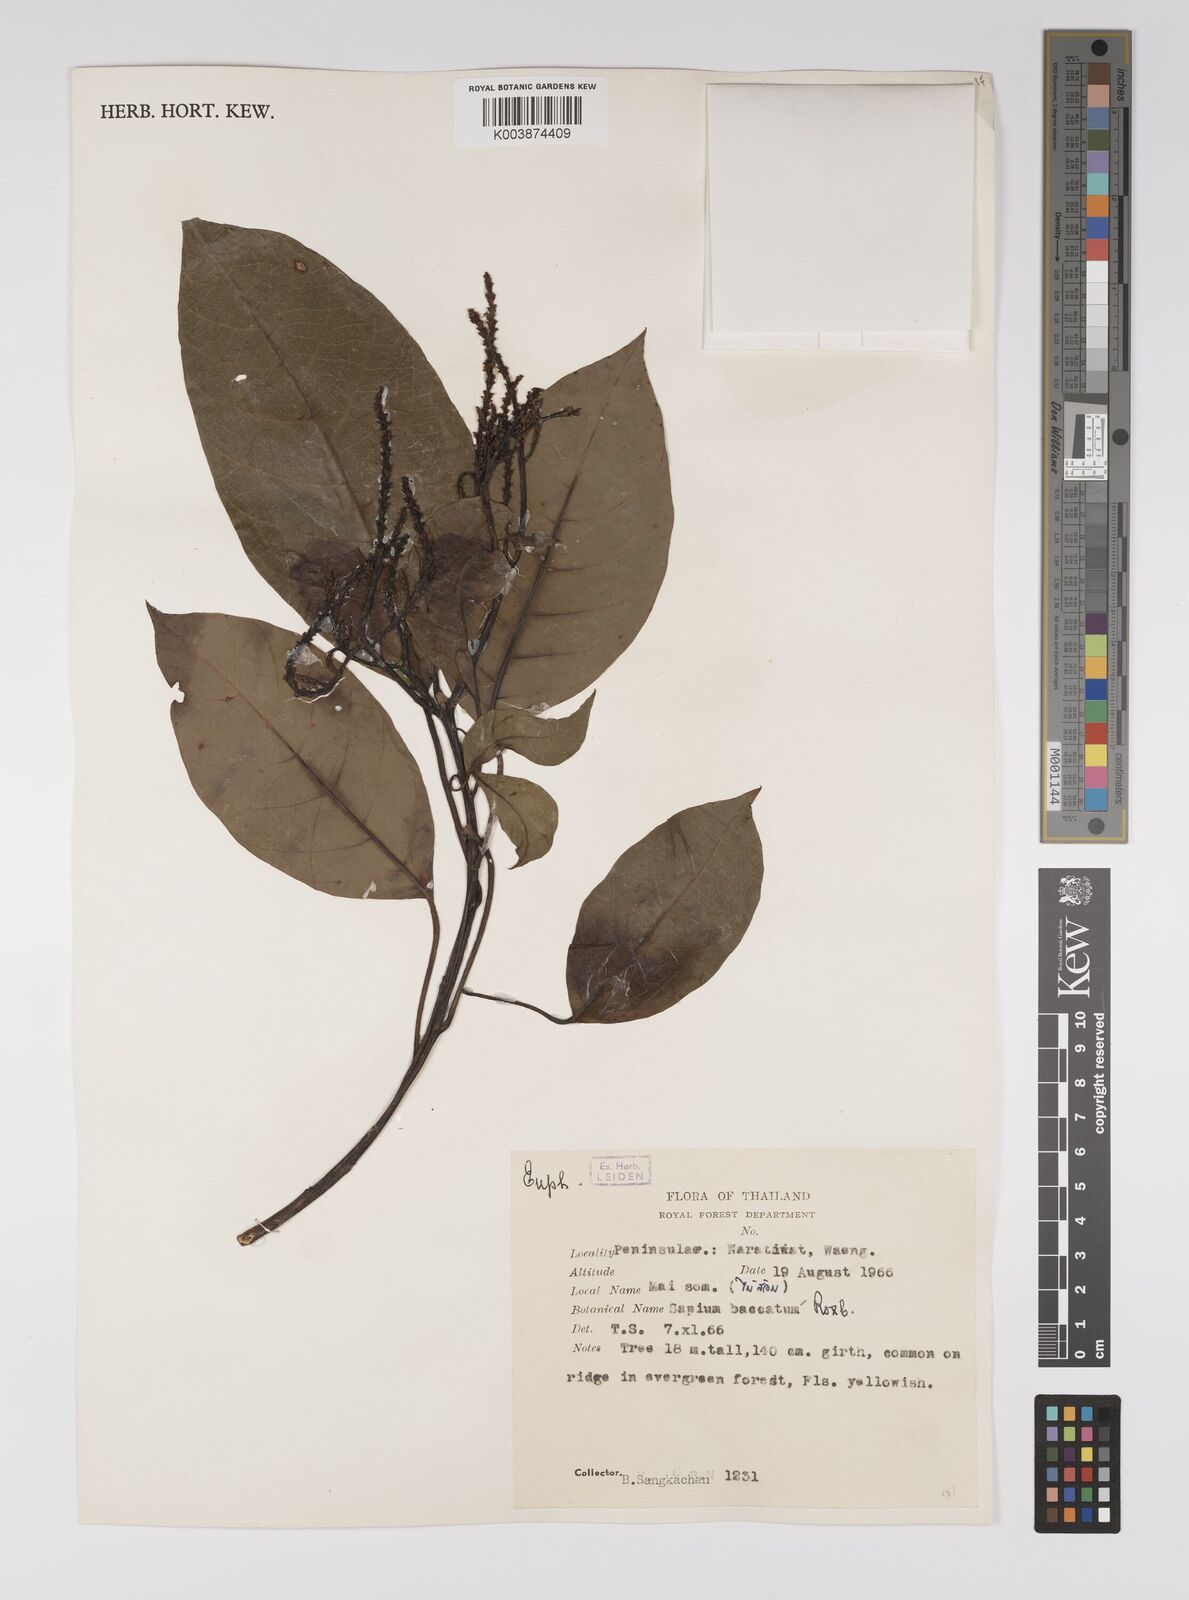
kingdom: Plantae
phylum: Tracheophyta
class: Magnoliopsida
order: Malpighiales
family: Euphorbiaceae
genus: Balakata
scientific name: Balakata baccata
